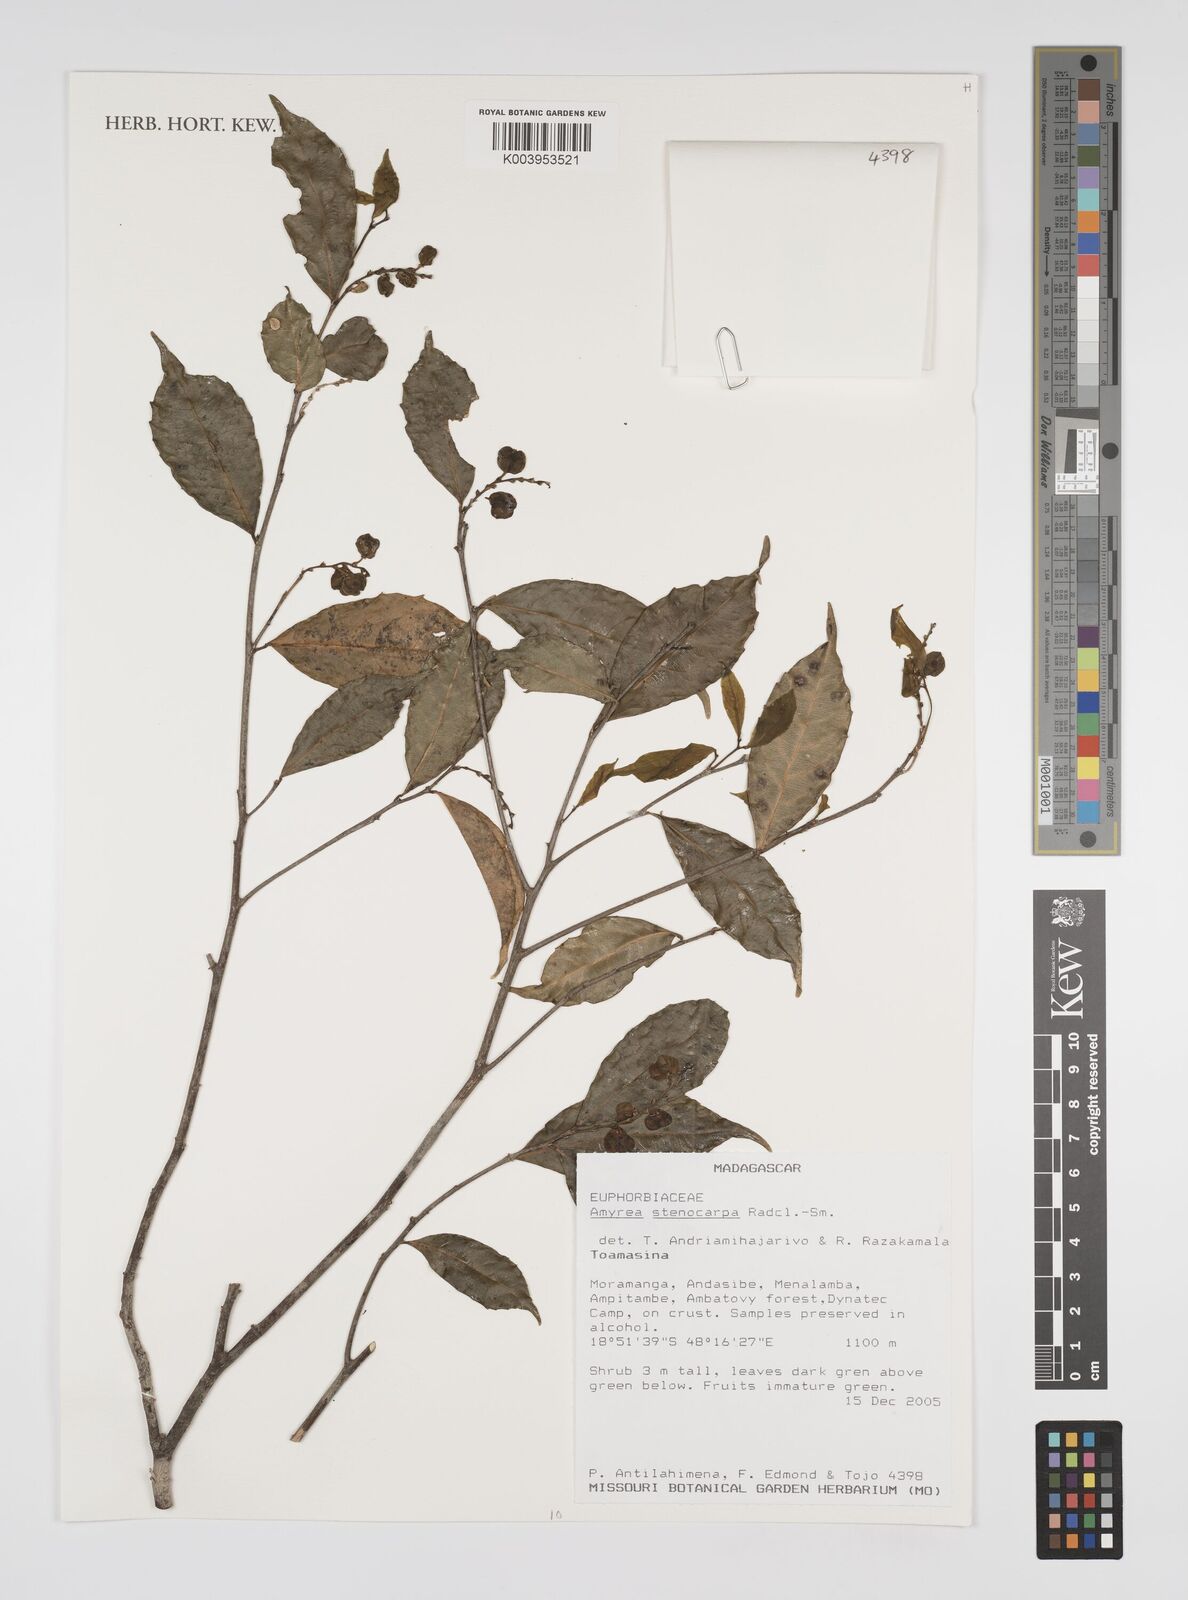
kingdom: Plantae
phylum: Tracheophyta
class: Magnoliopsida
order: Malpighiales
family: Euphorbiaceae
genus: Amyrea
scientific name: Amyrea stenocarpa
